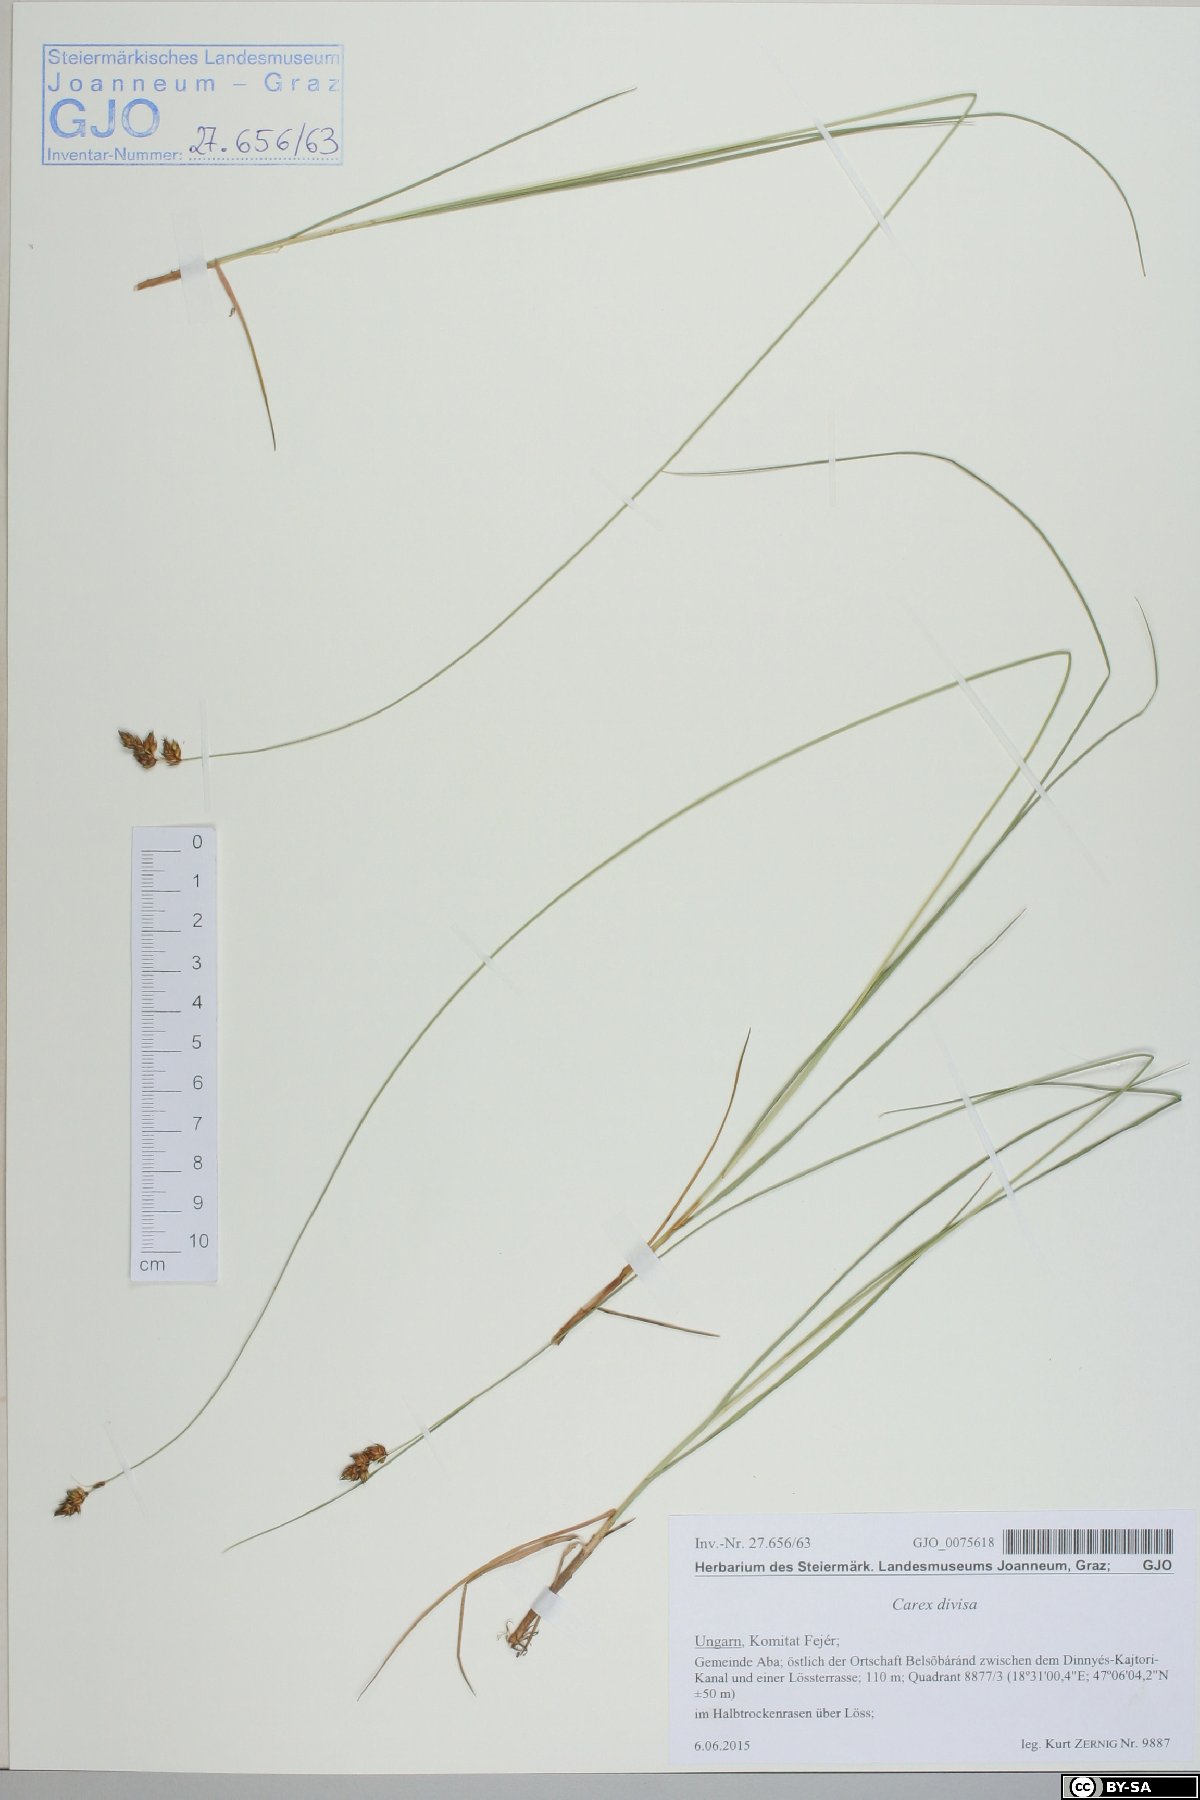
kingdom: Plantae
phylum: Tracheophyta
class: Liliopsida
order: Poales
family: Cyperaceae
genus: Carex
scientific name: Carex divisa
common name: Divided sedge
